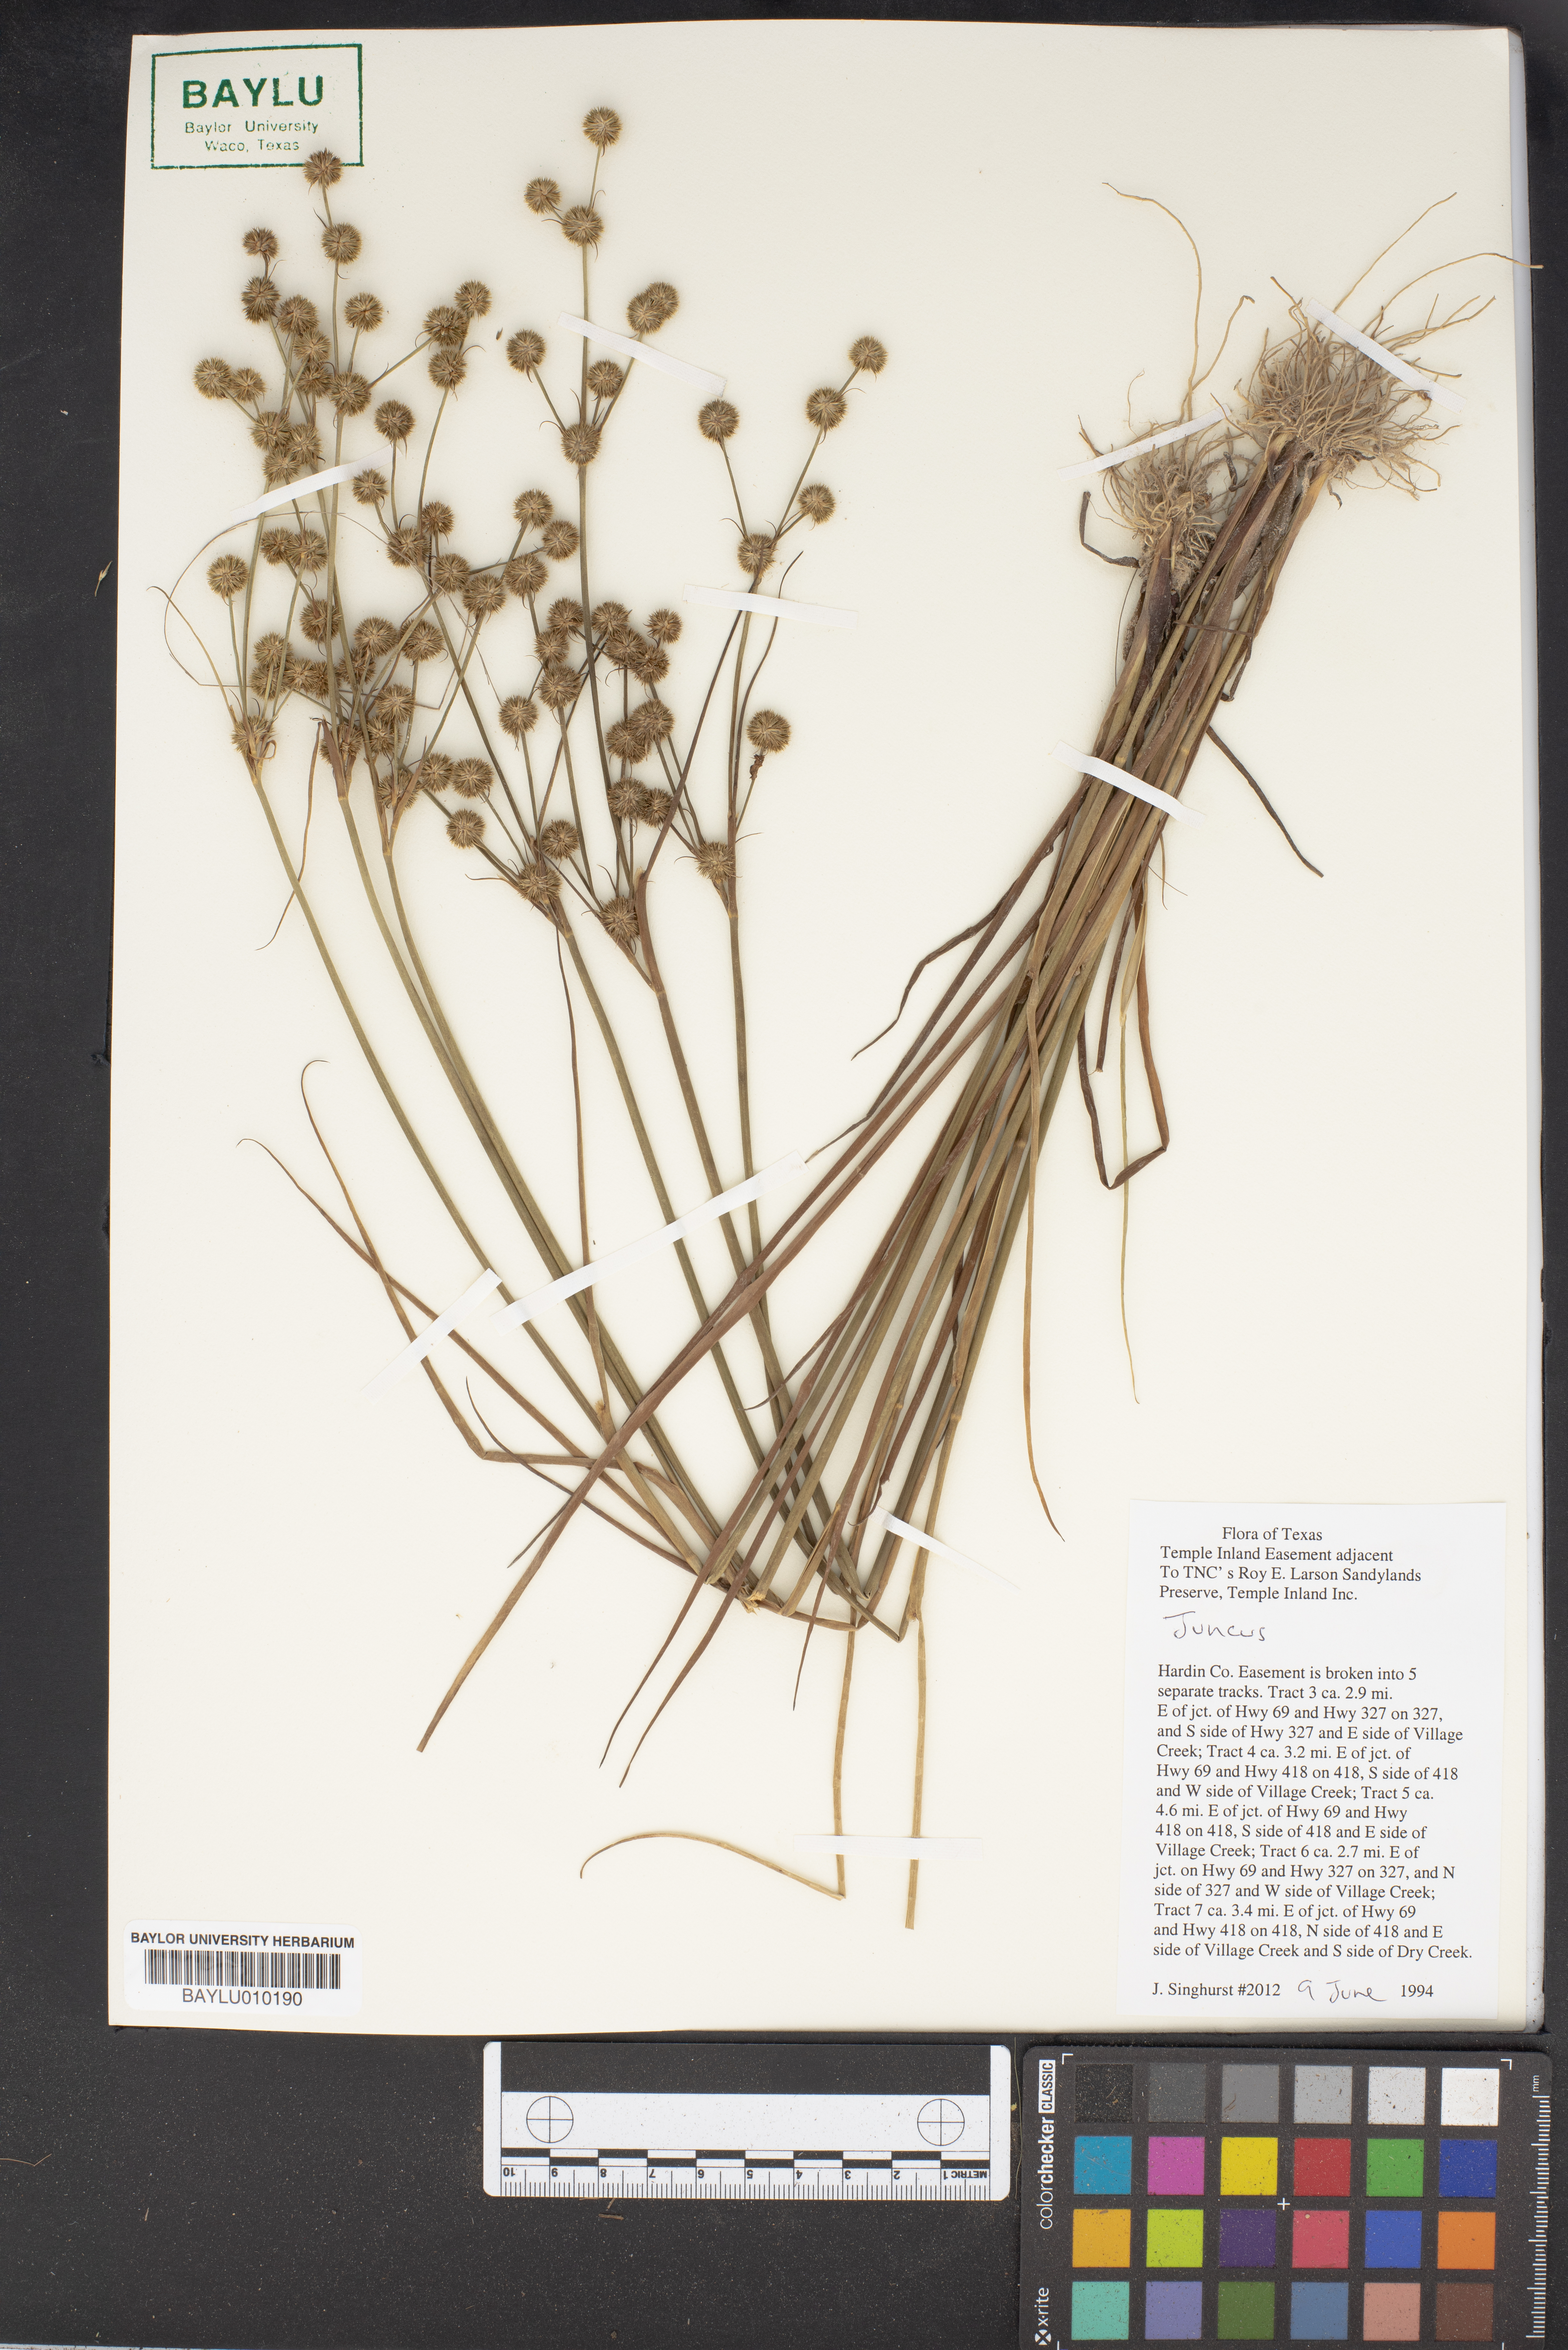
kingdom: Plantae
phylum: Tracheophyta
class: Liliopsida
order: Poales
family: Juncaceae
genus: Juncus
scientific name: Juncus
